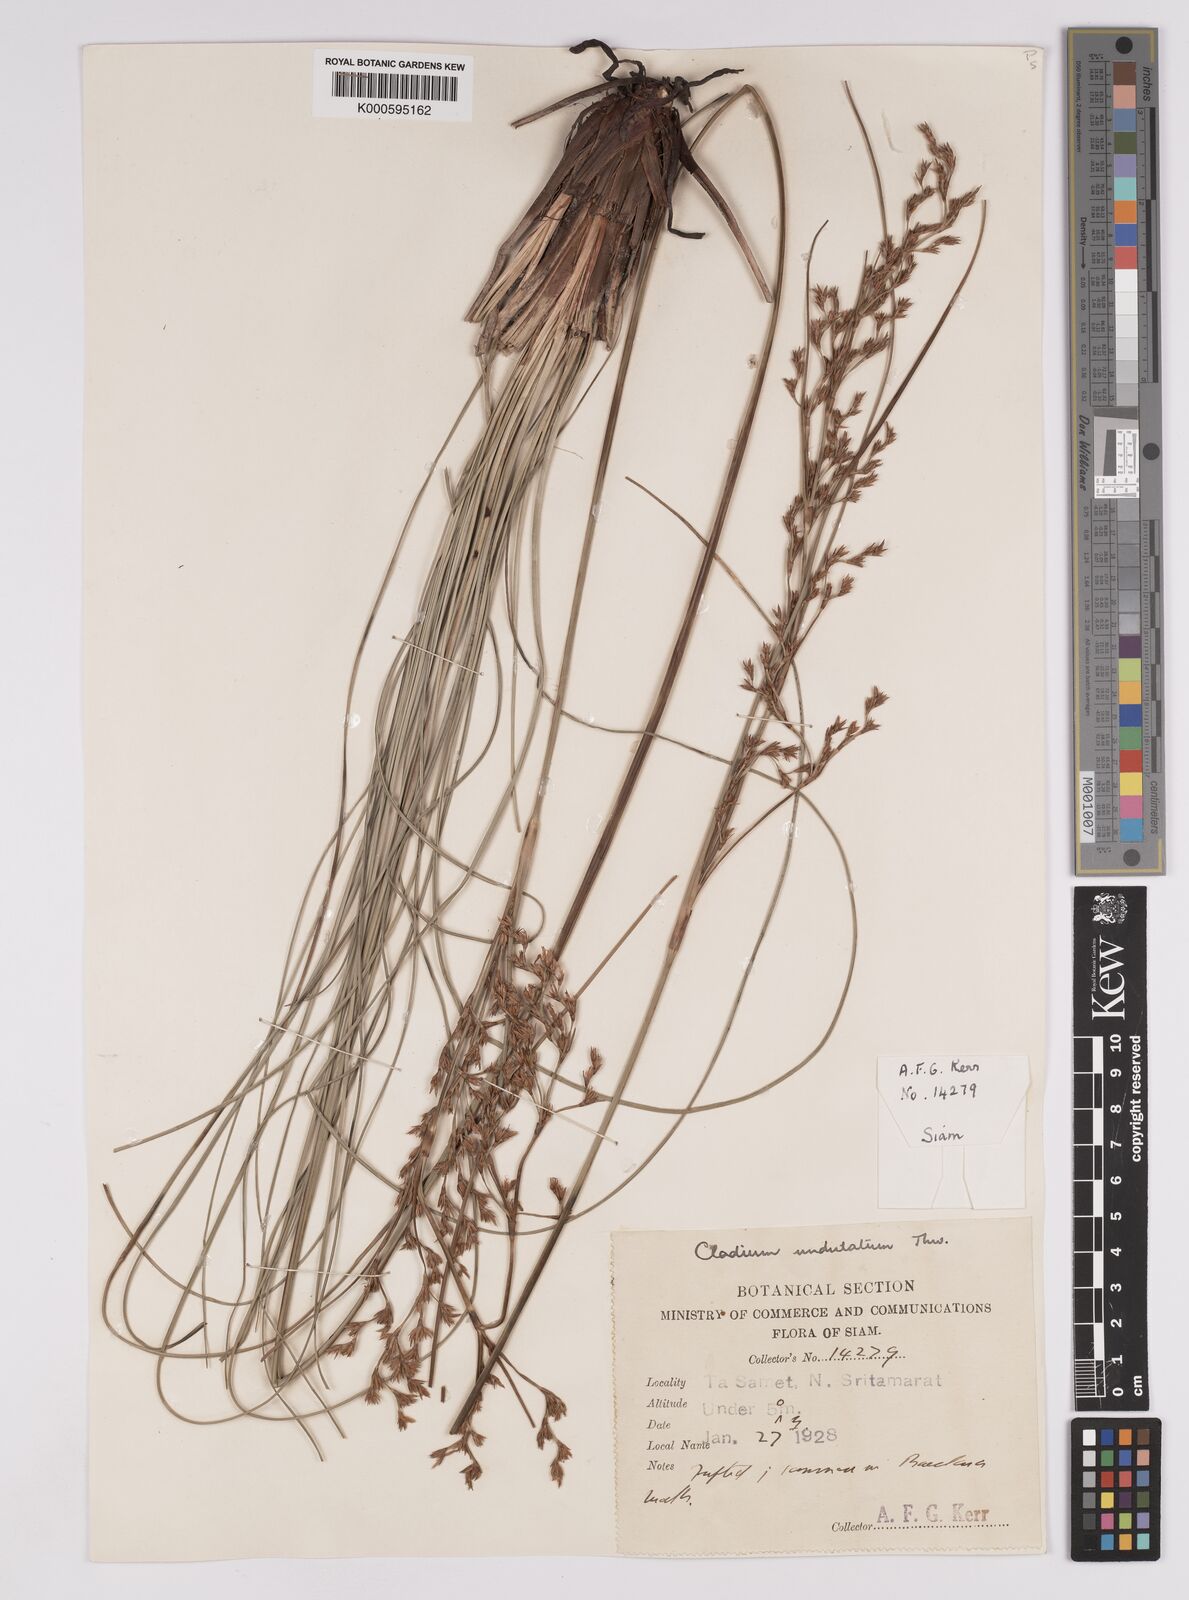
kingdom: Plantae
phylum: Tracheophyta
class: Liliopsida
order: Poales
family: Cyperaceae
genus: Anthelepis
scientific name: Anthelepis undulata
